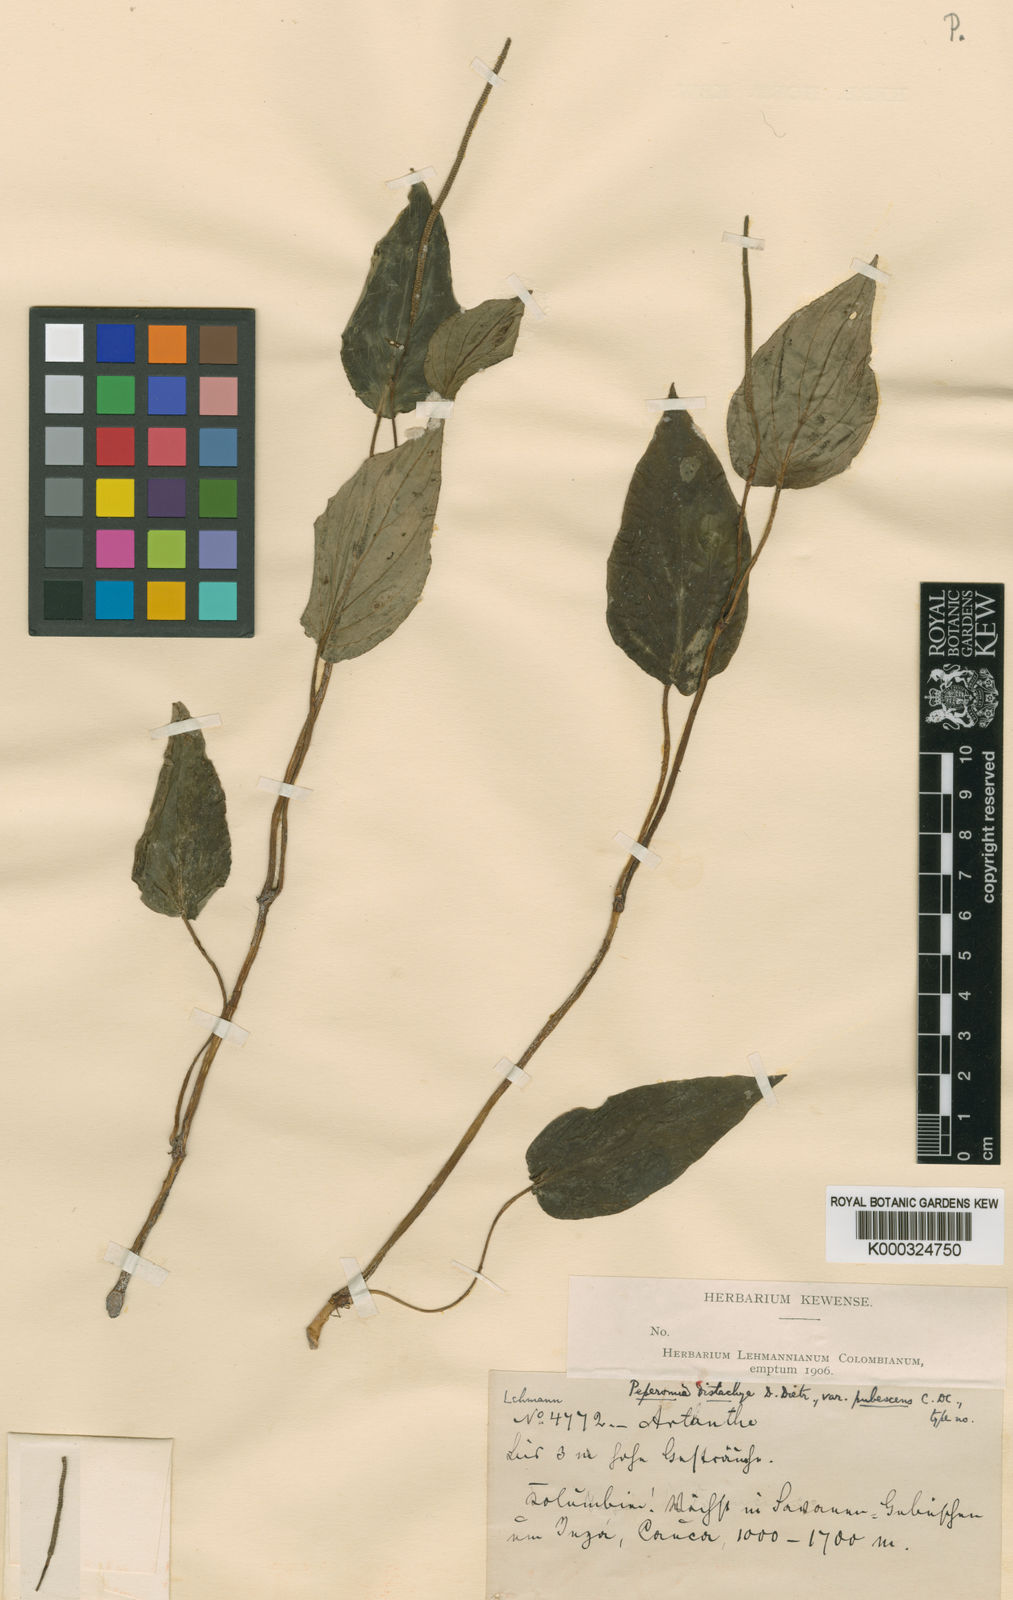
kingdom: Plantae
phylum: Tracheophyta
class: Magnoliopsida
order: Piperales
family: Piperaceae
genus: Peperomia
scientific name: Peperomia
